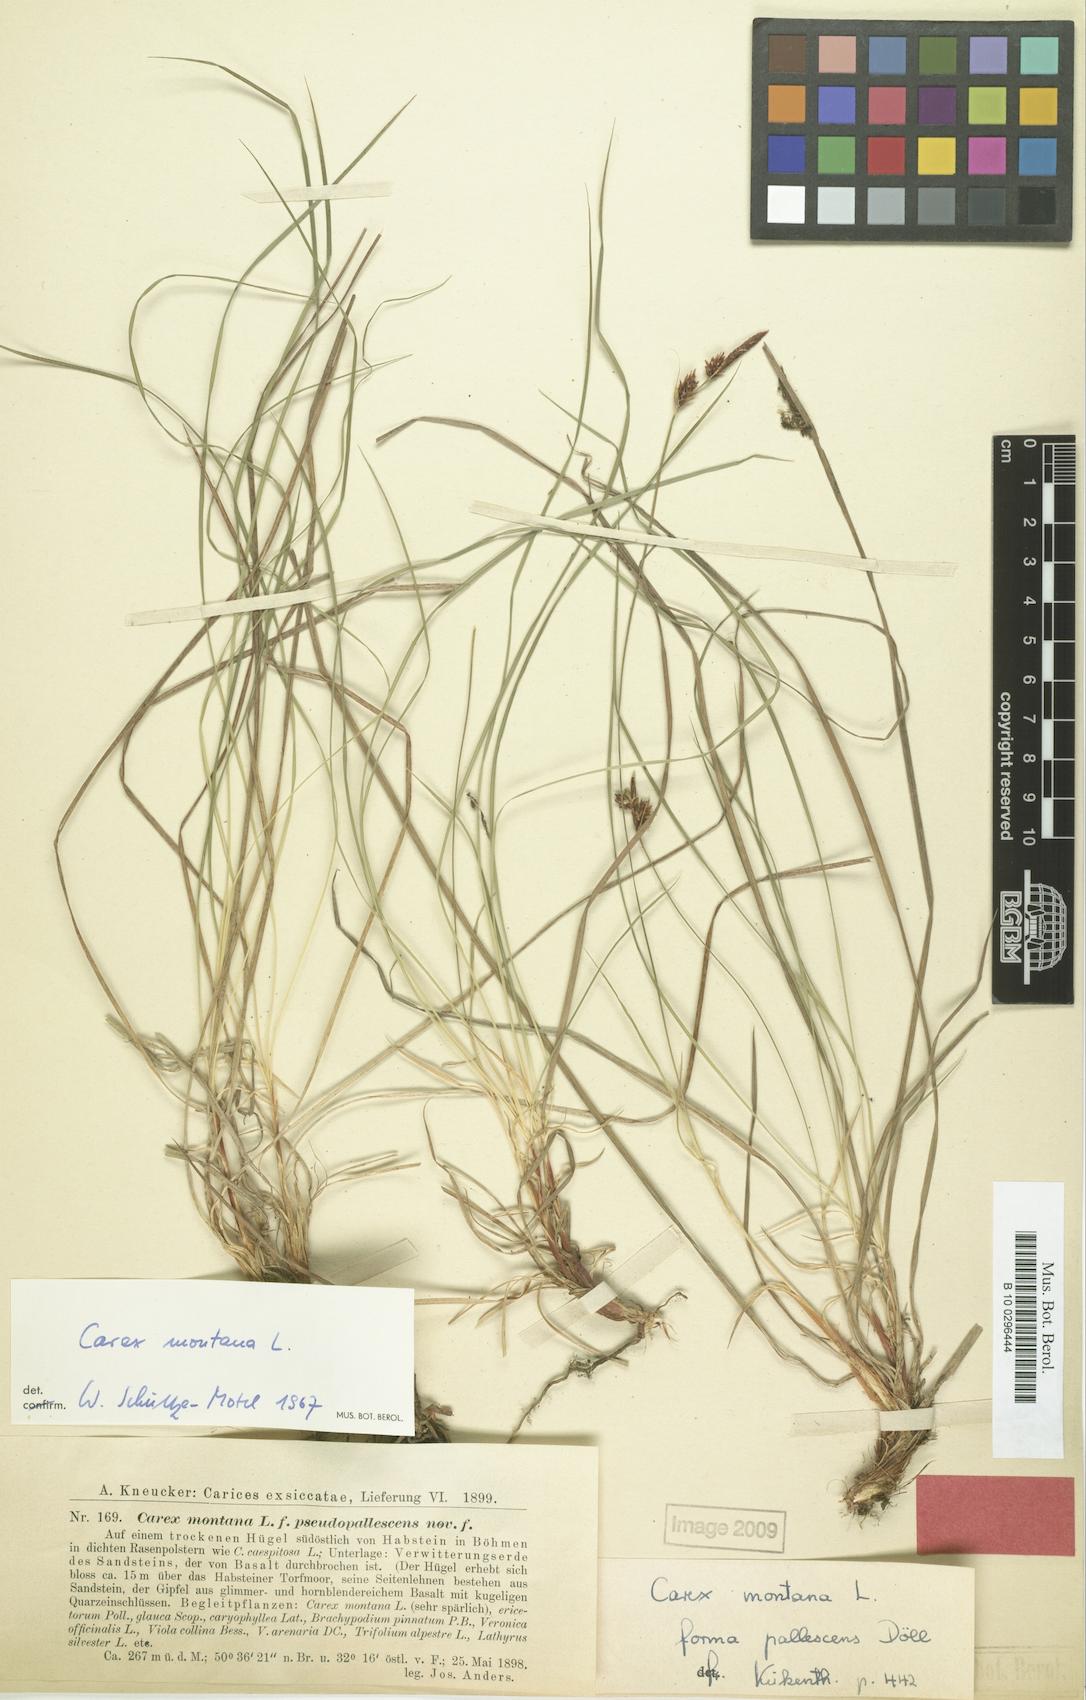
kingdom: Plantae
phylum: Tracheophyta
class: Liliopsida
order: Poales
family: Cyperaceae
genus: Carex
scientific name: Carex montana
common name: Soft-leaved sedge
